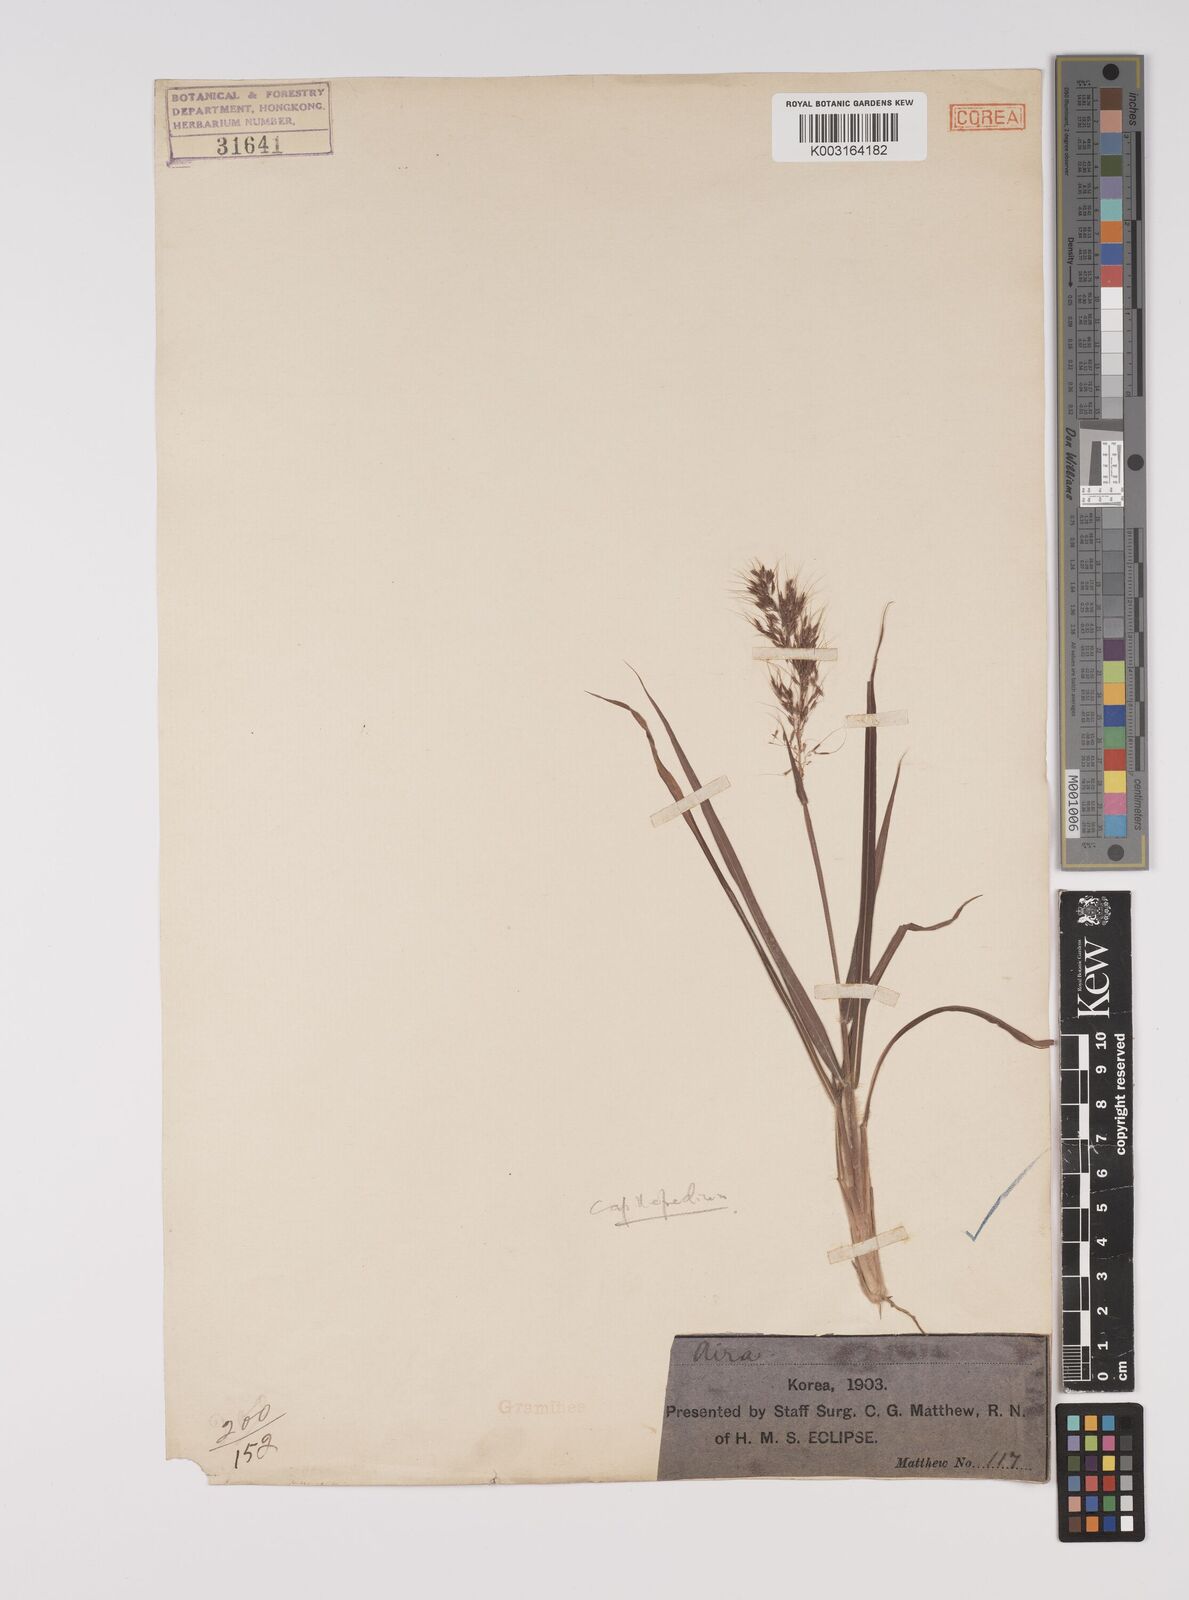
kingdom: Plantae
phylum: Tracheophyta
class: Liliopsida
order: Poales
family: Poaceae
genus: Capillipedium
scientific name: Capillipedium parviflorum
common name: Golden-beard
